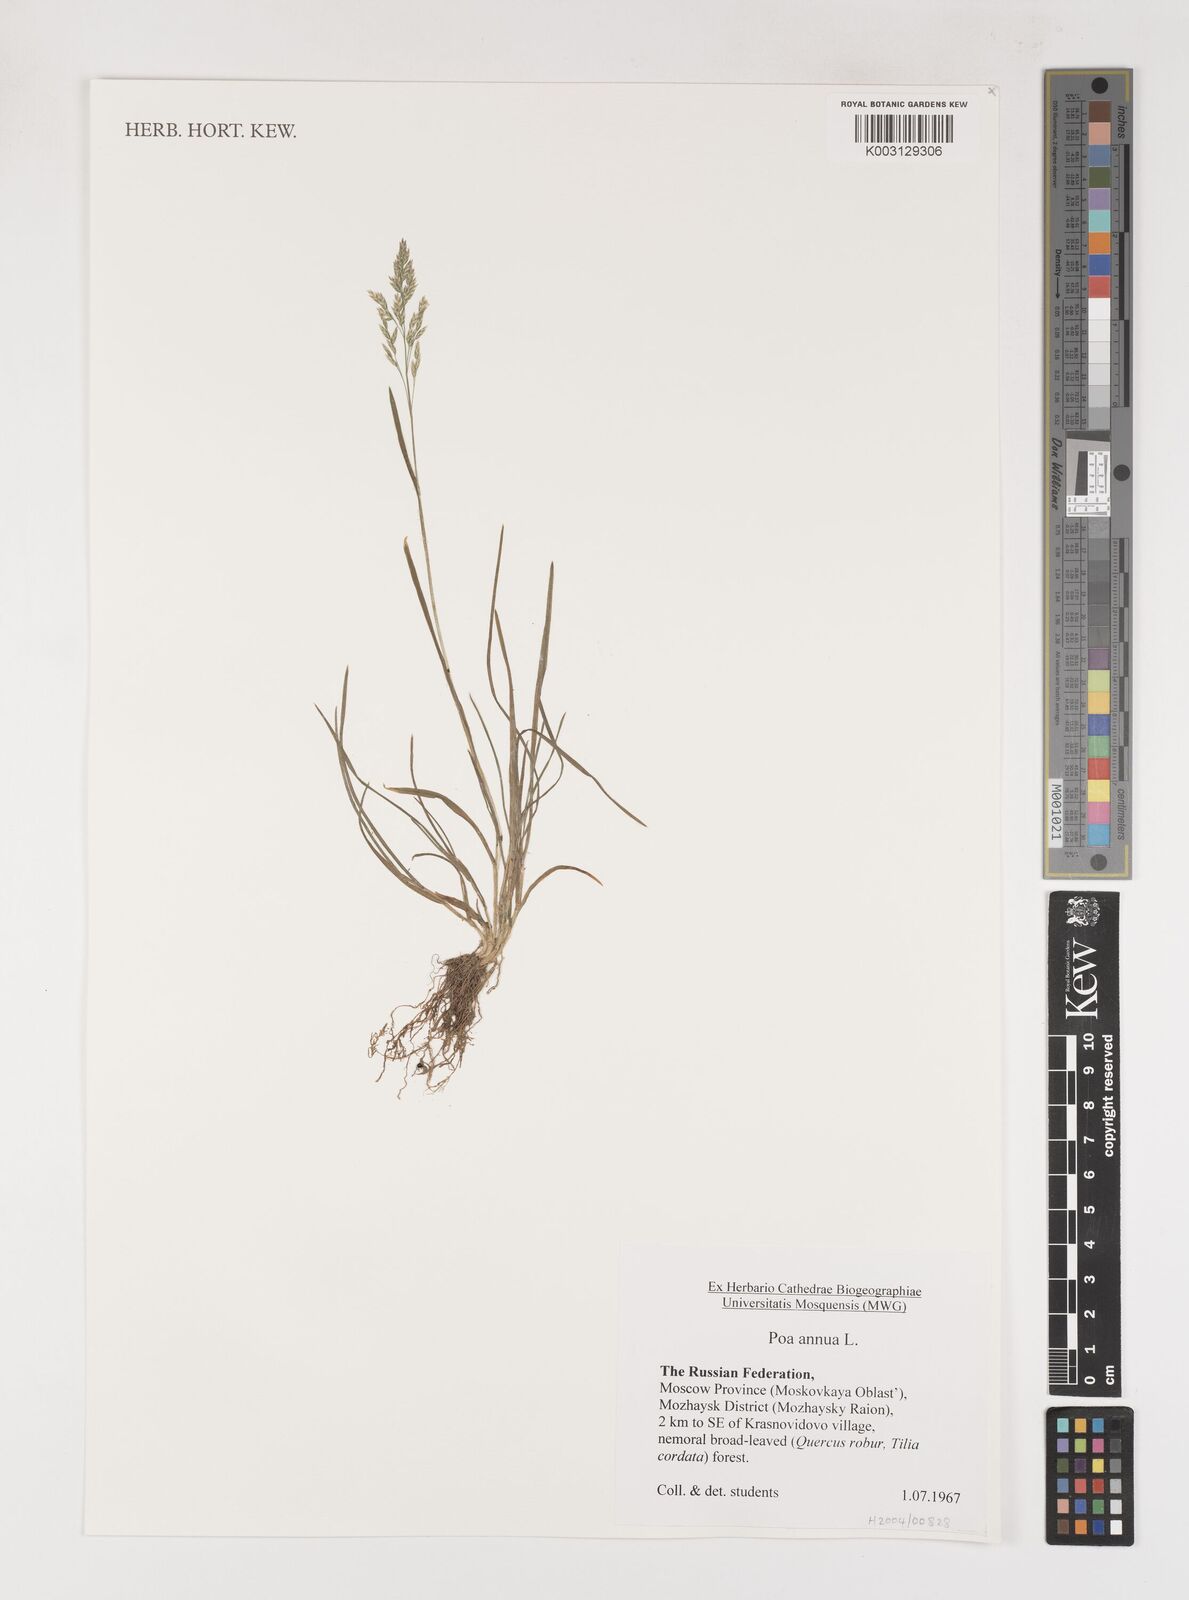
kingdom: Plantae
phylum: Tracheophyta
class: Liliopsida
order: Poales
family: Poaceae
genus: Poa
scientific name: Poa annua
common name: Annual bluegrass
